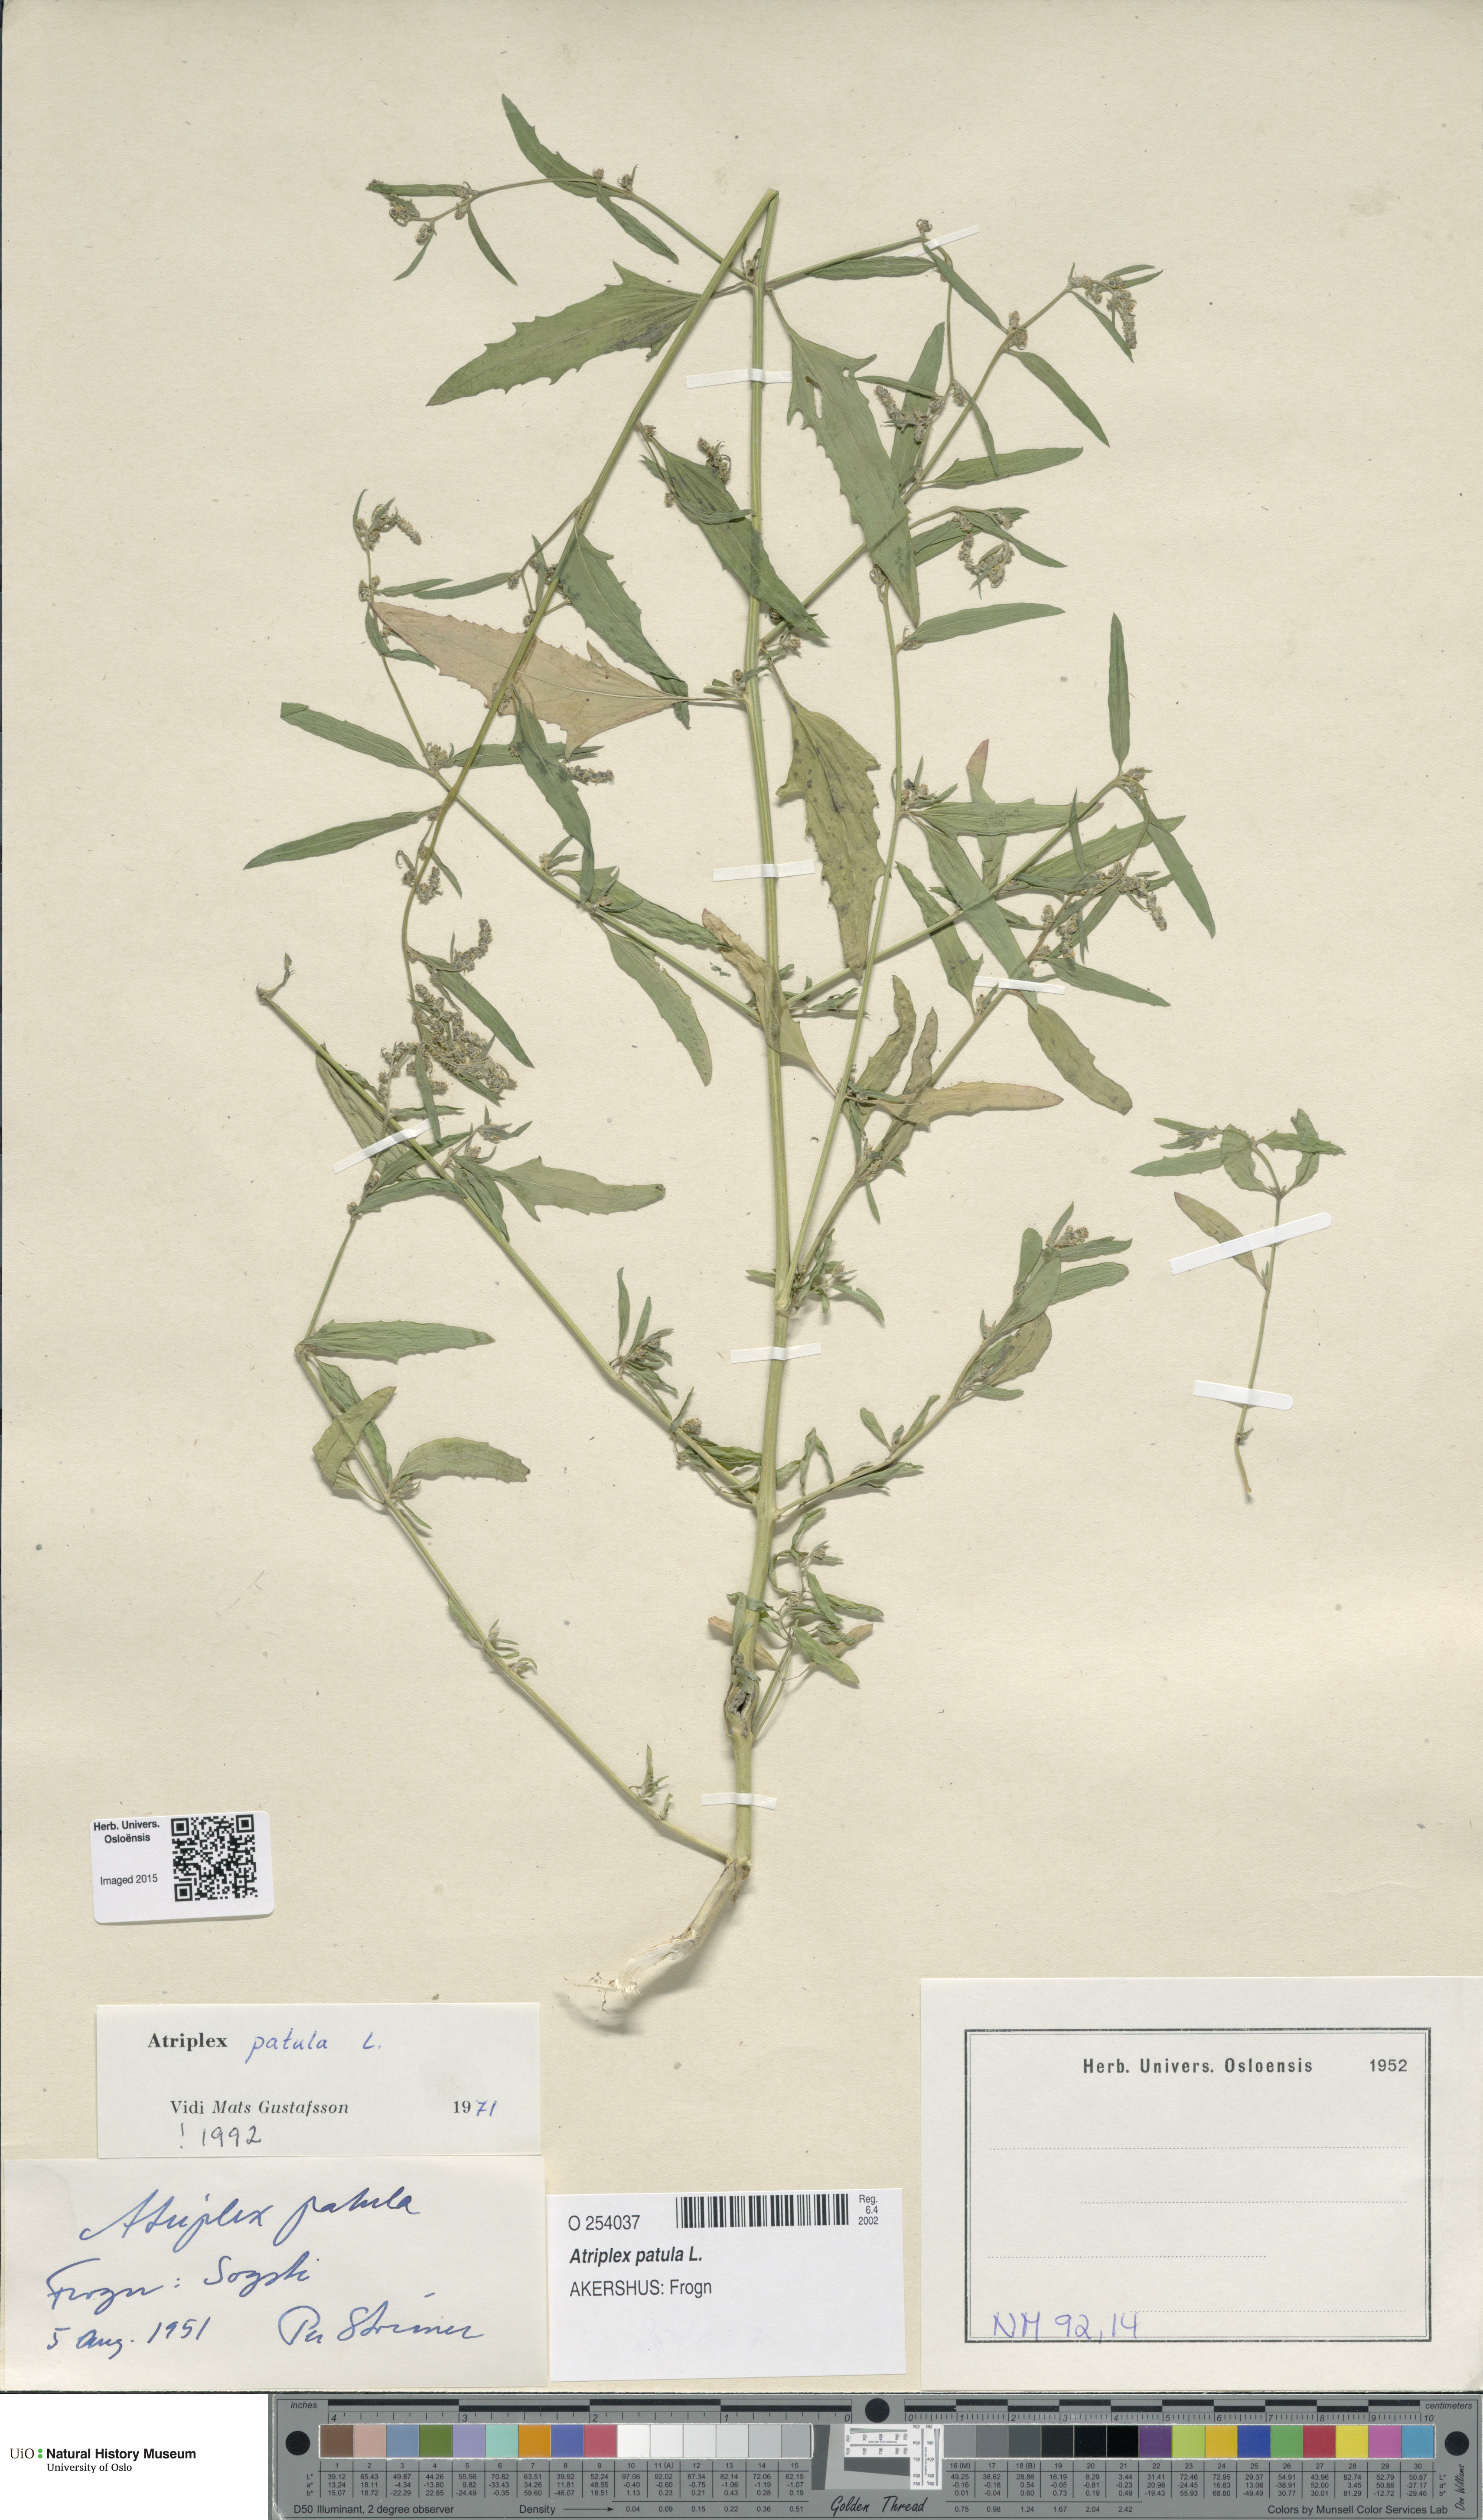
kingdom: Plantae
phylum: Tracheophyta
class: Magnoliopsida
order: Caryophyllales
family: Amaranthaceae
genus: Atriplex
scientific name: Atriplex patula
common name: Common orache
